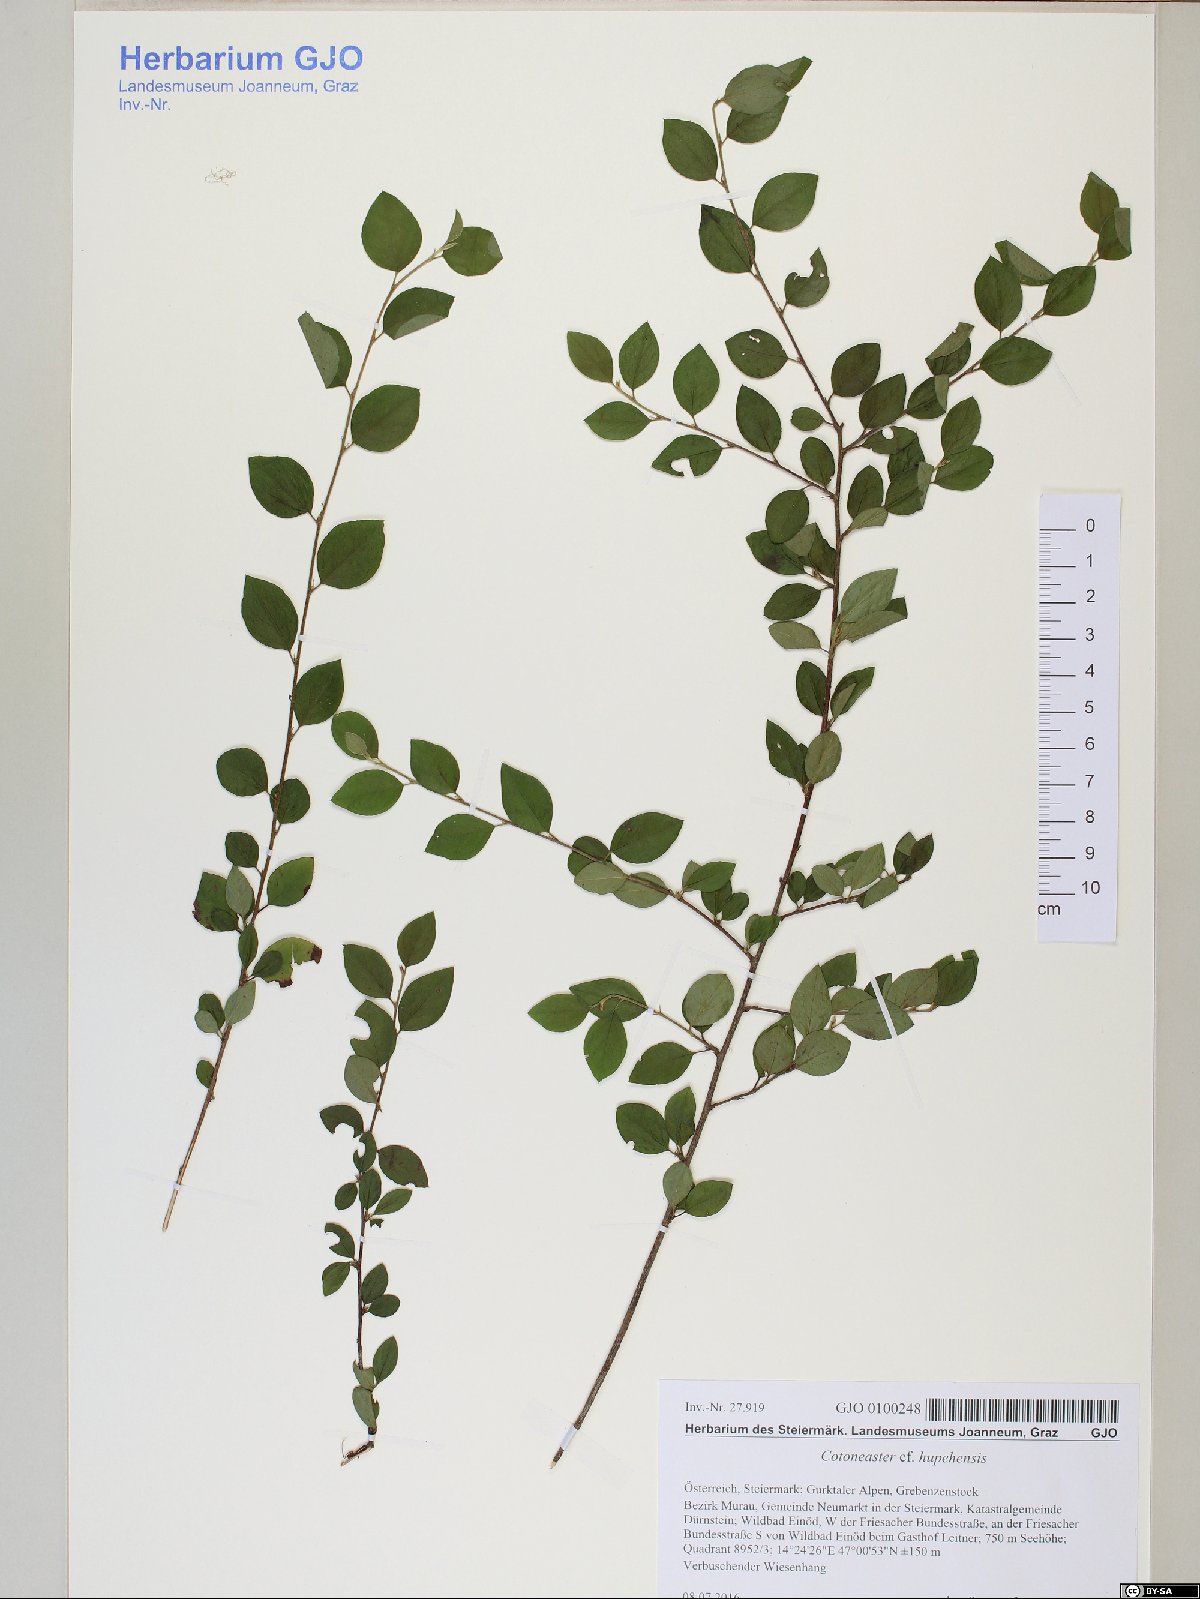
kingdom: Plantae
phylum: Tracheophyta
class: Magnoliopsida
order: Rosales
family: Rosaceae
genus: Cotoneaster
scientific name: Cotoneaster sylvestrii
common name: Rose
